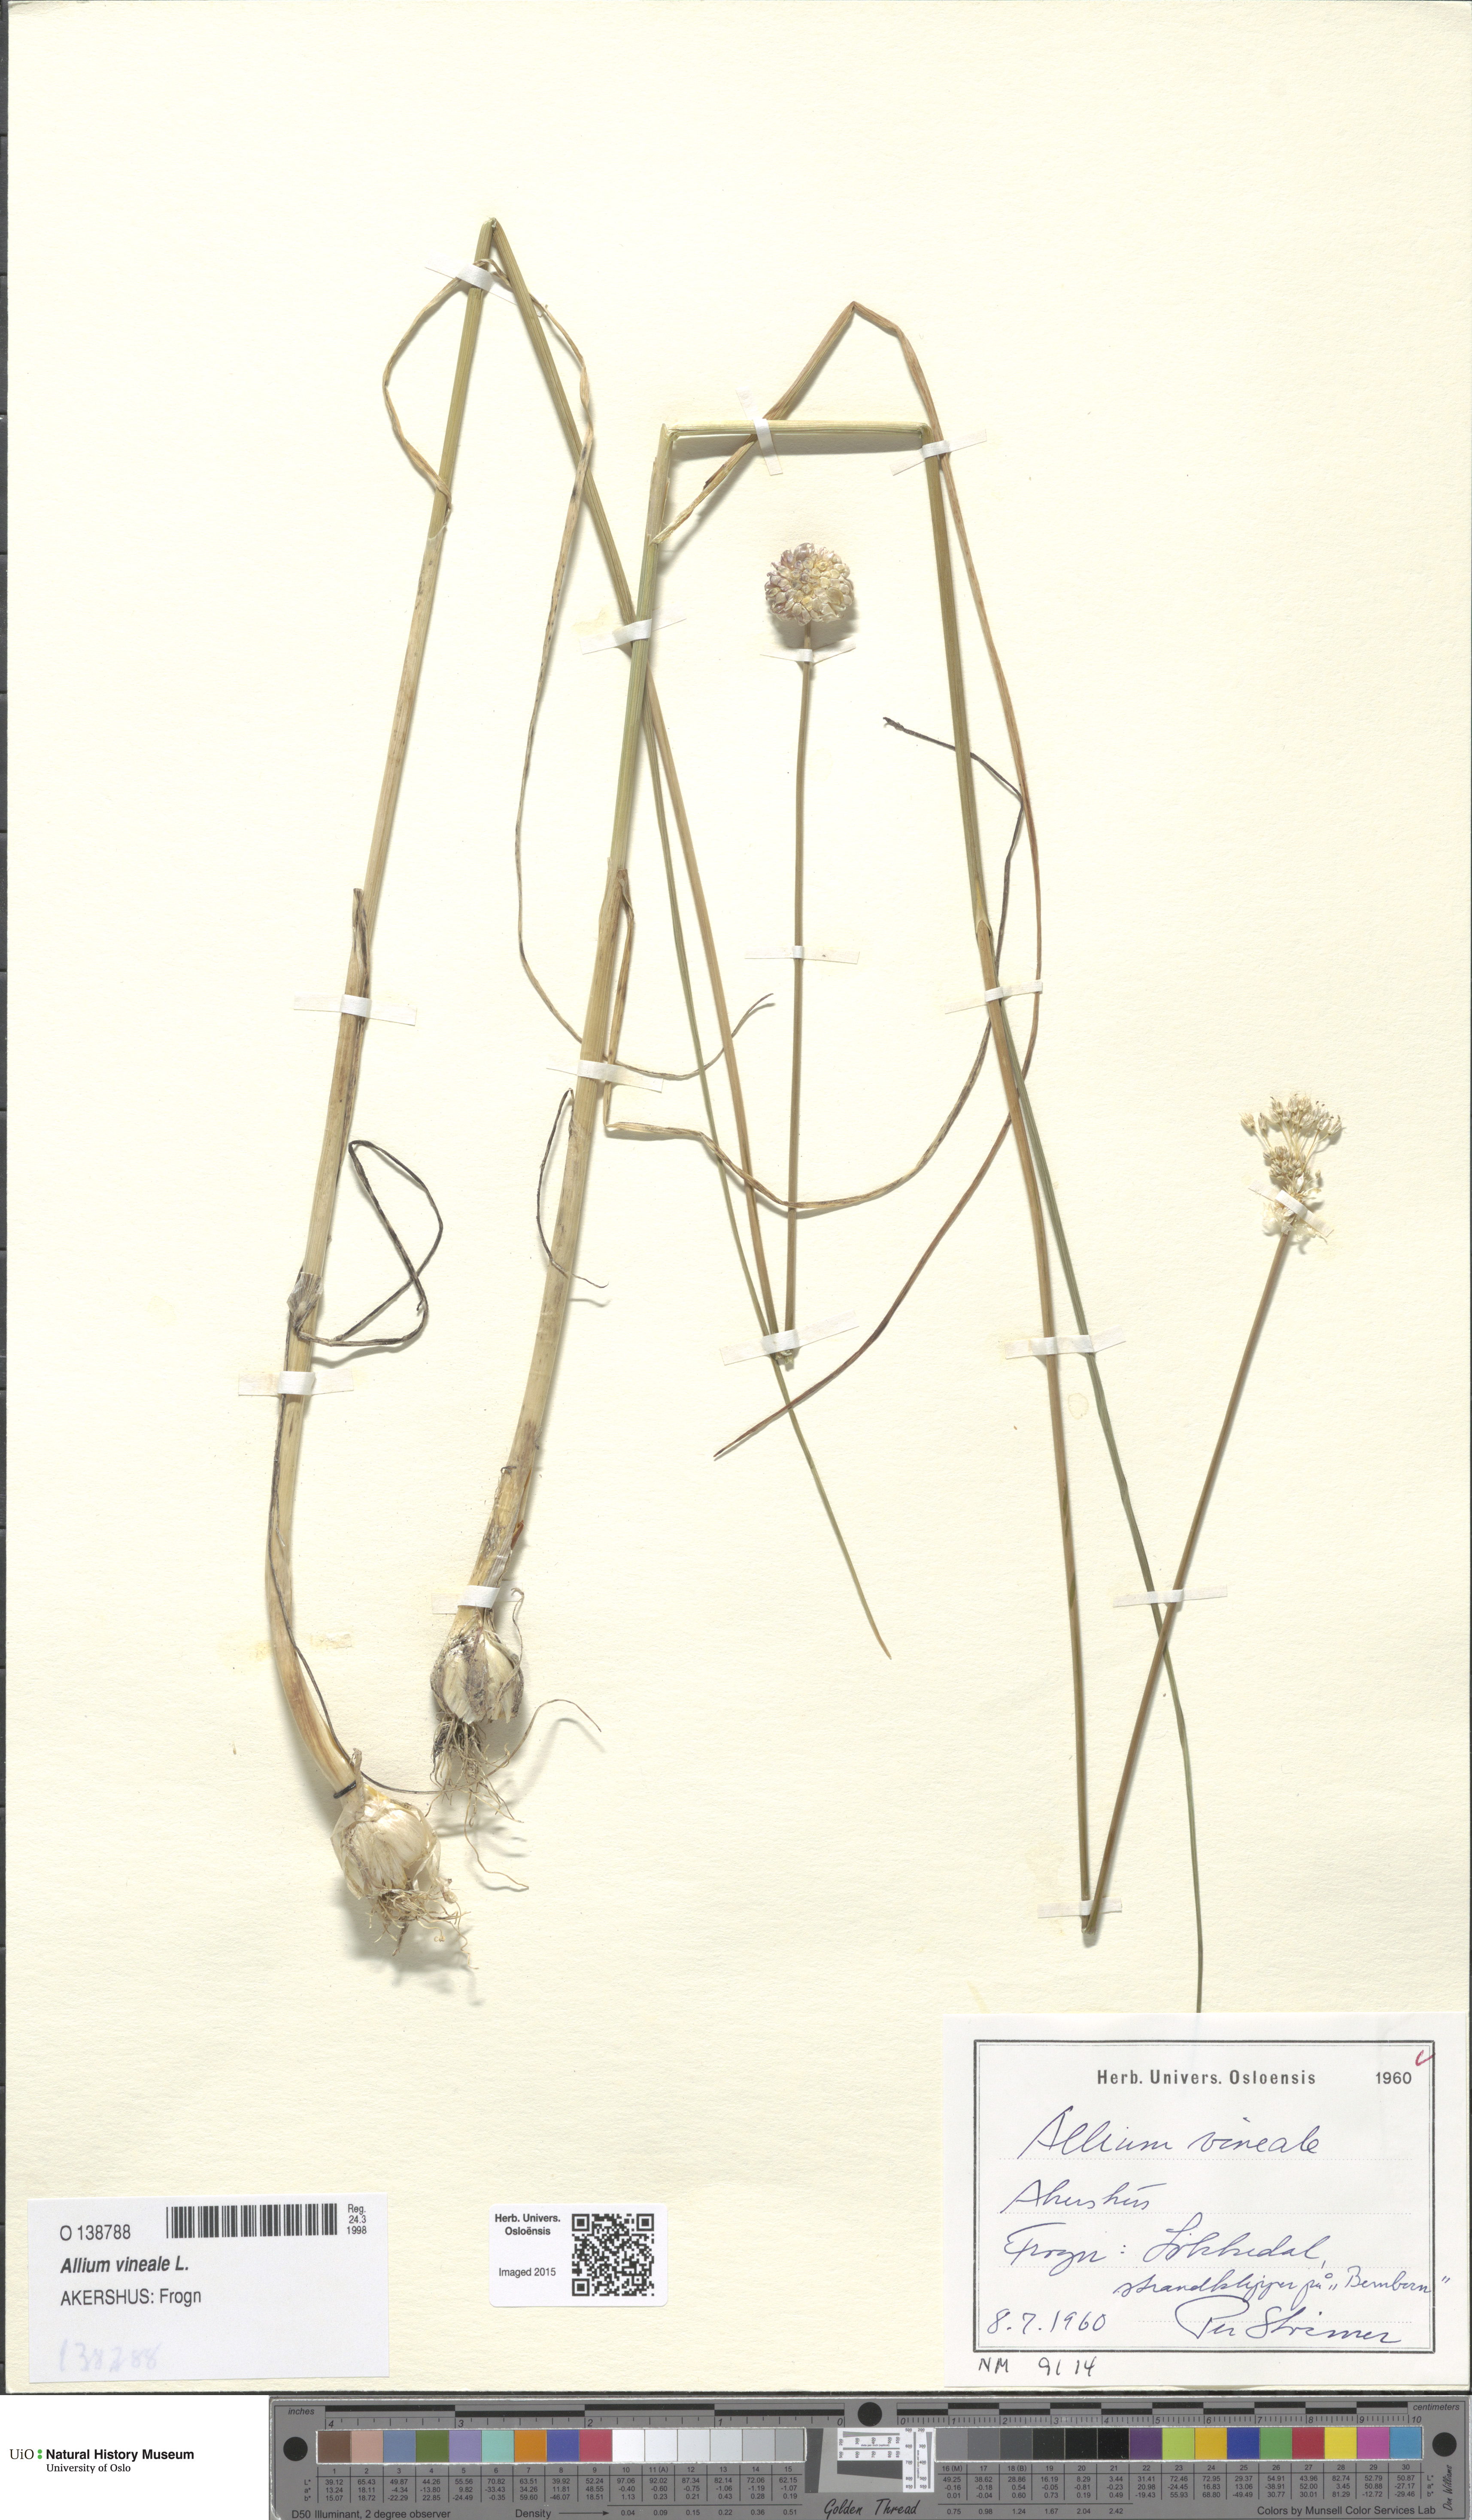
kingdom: Plantae
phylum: Tracheophyta
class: Liliopsida
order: Asparagales
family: Amaryllidaceae
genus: Allium
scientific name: Allium vineale
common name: Crow garlic
